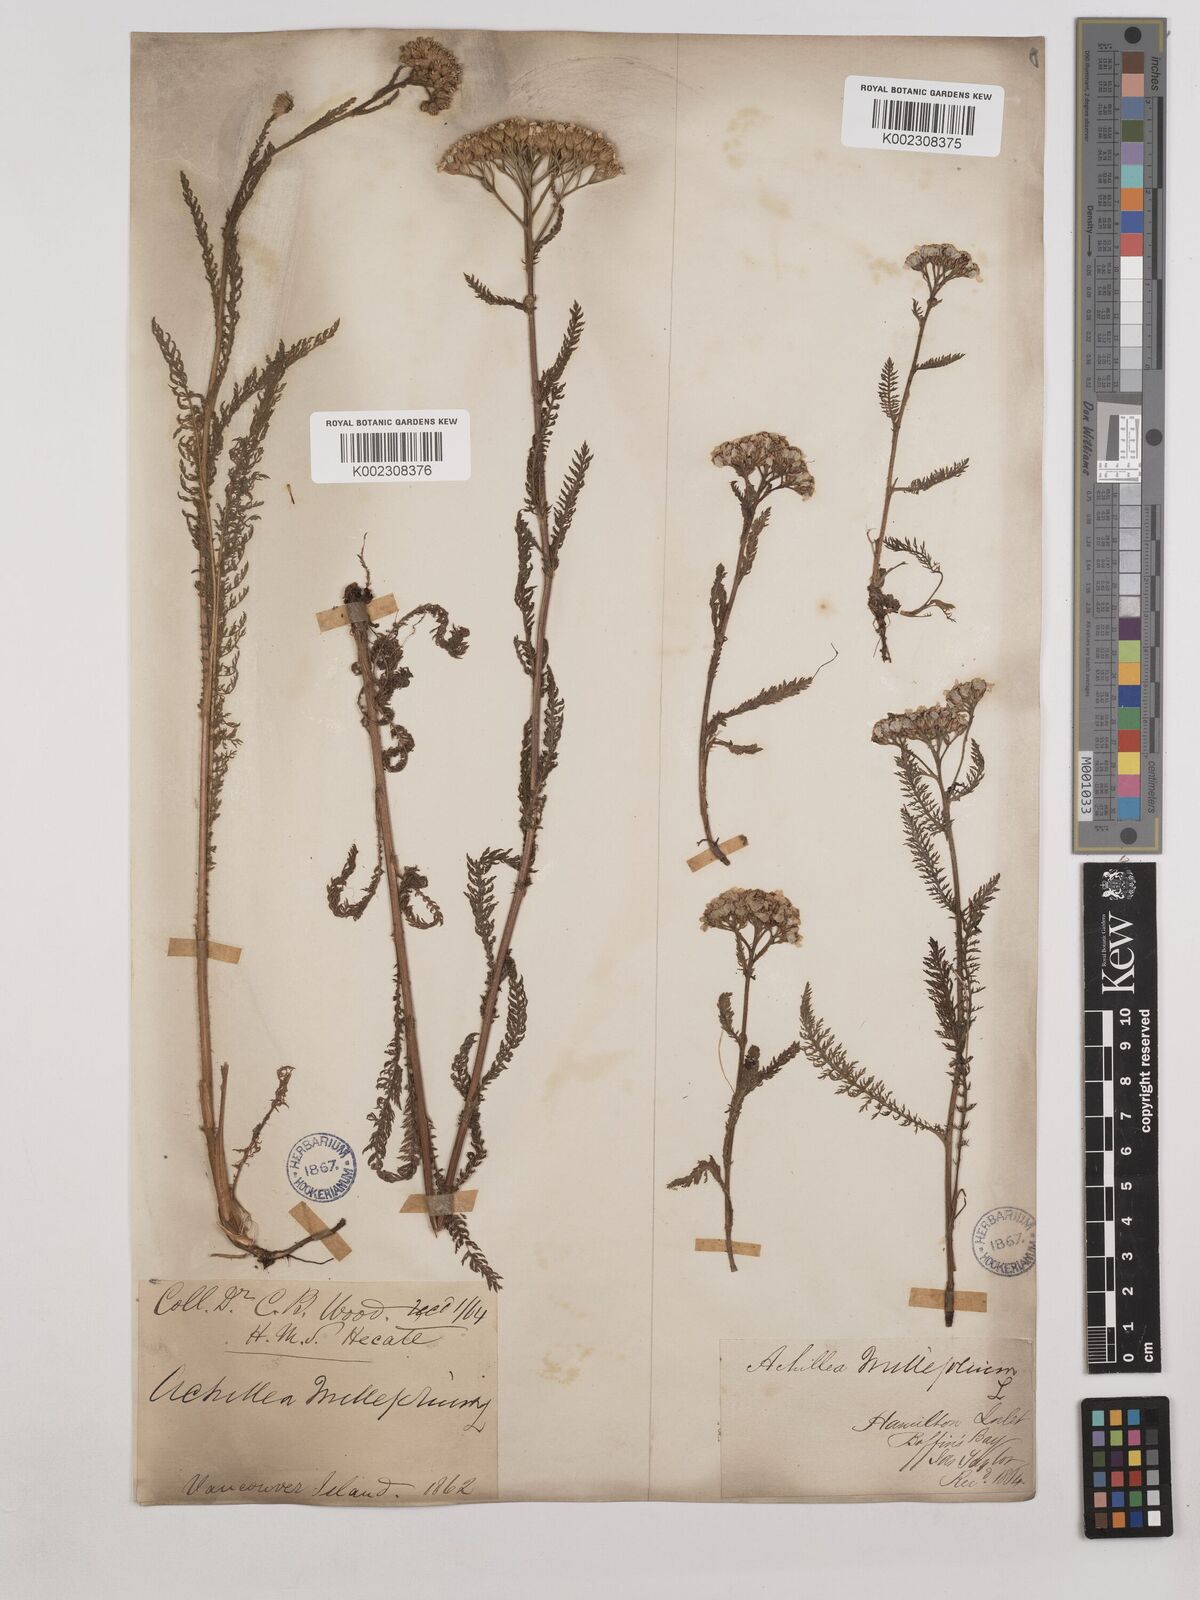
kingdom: Plantae
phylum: Tracheophyta
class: Magnoliopsida
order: Asterales
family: Asteraceae
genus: Achillea
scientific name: Achillea millefolium
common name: Yarrow
